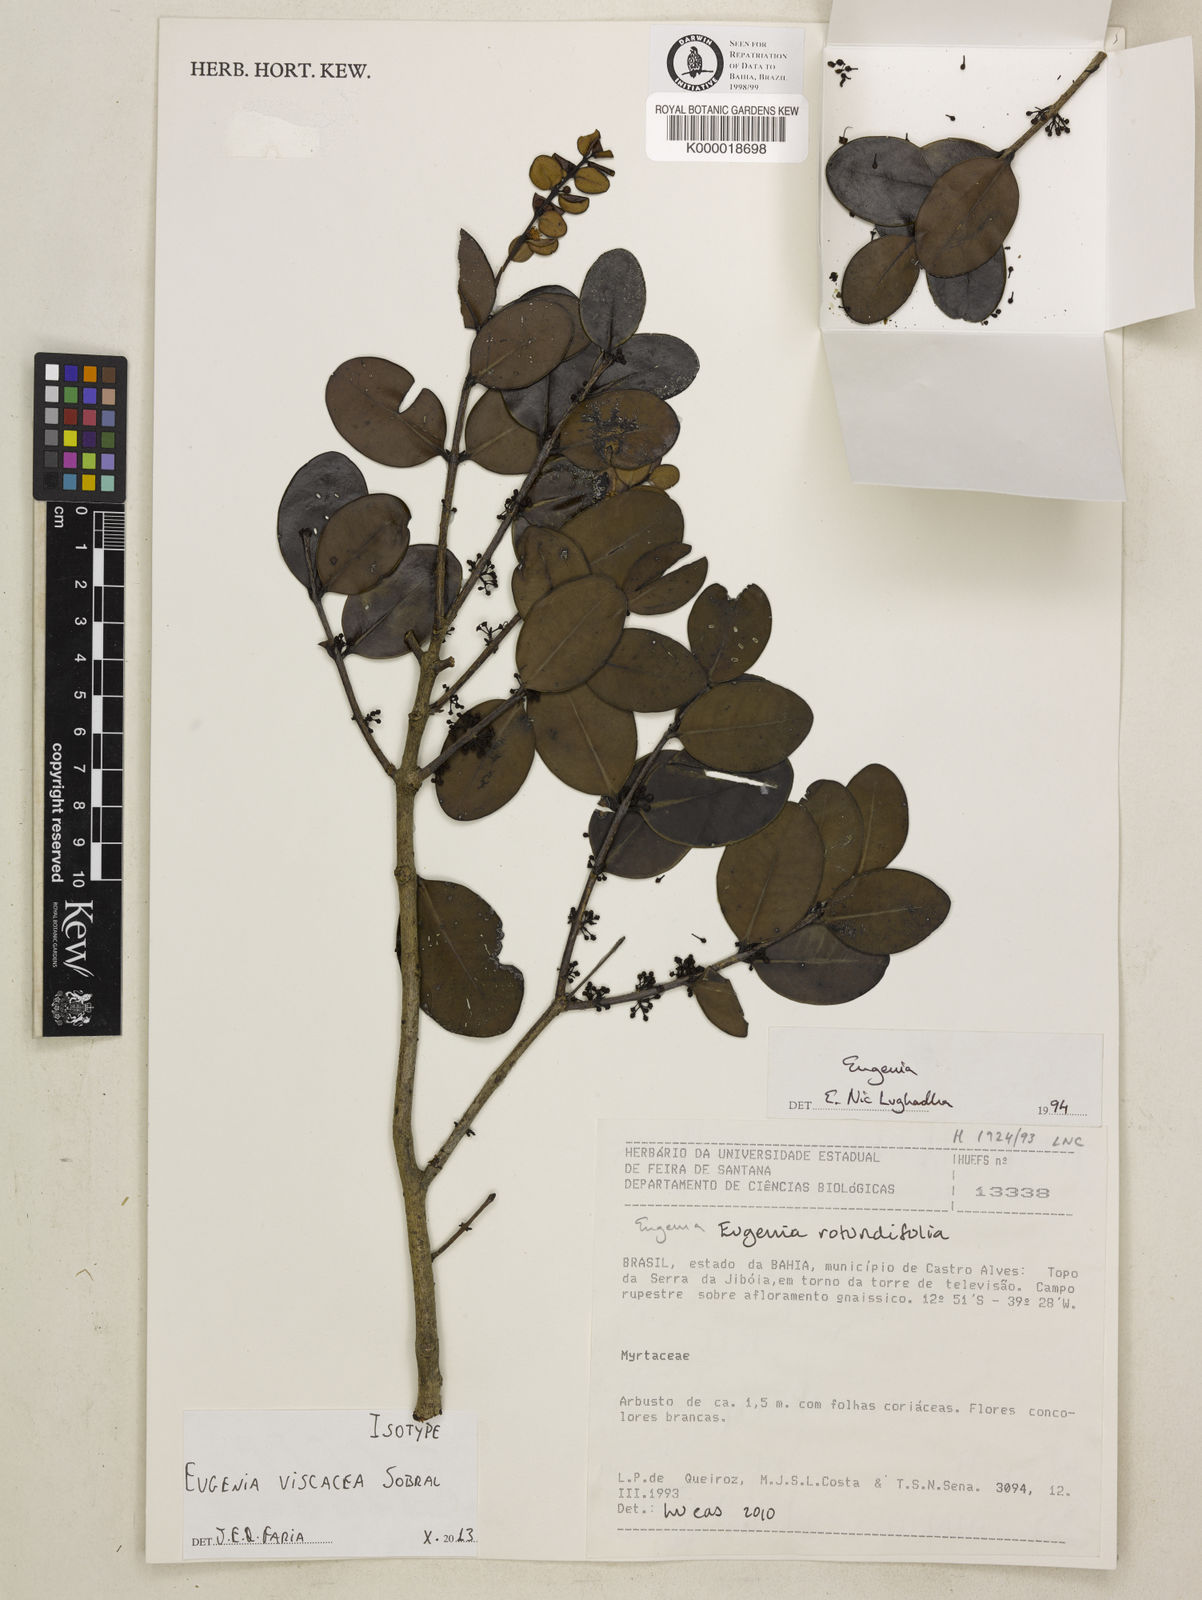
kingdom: Plantae
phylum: Tracheophyta
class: Magnoliopsida
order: Myrtales
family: Myrtaceae
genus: Eugenia
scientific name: Eugenia viscacea
